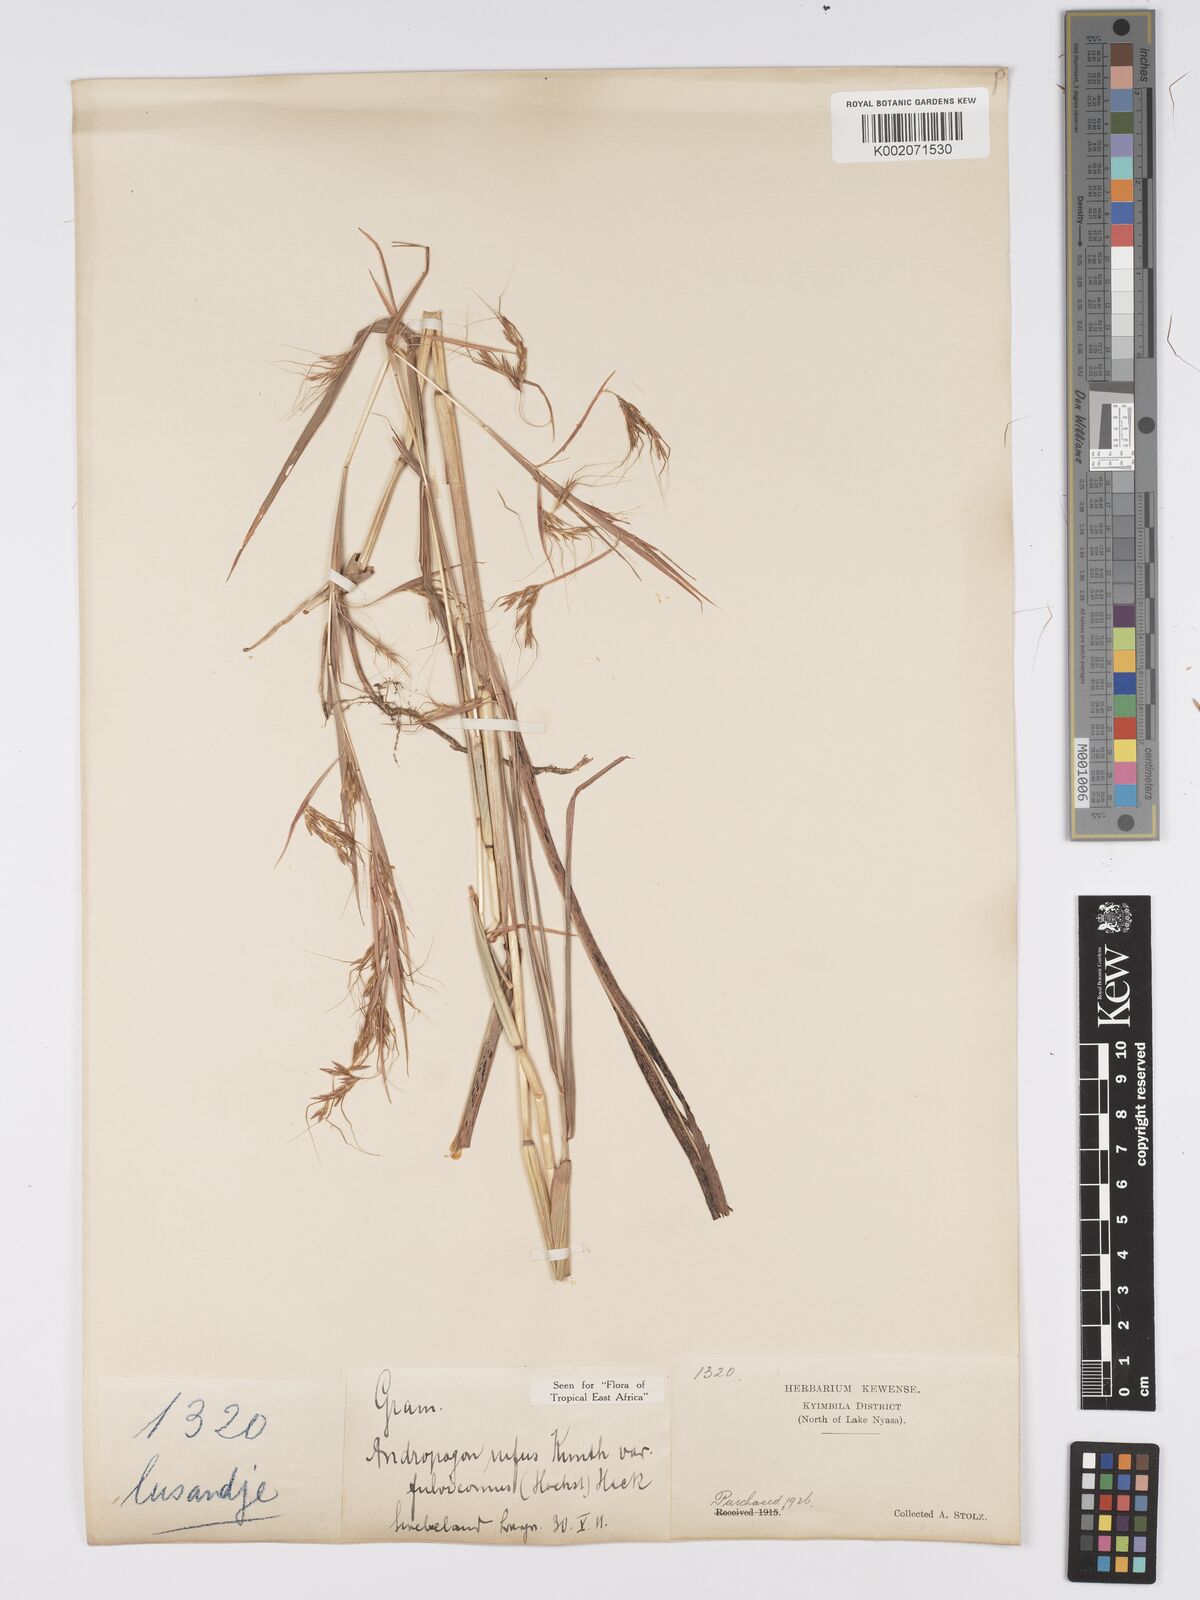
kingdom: Plantae
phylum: Tracheophyta
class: Liliopsida
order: Poales
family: Poaceae
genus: Hyparrhenia
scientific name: Hyparrhenia rufa
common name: Jaraguagrass
